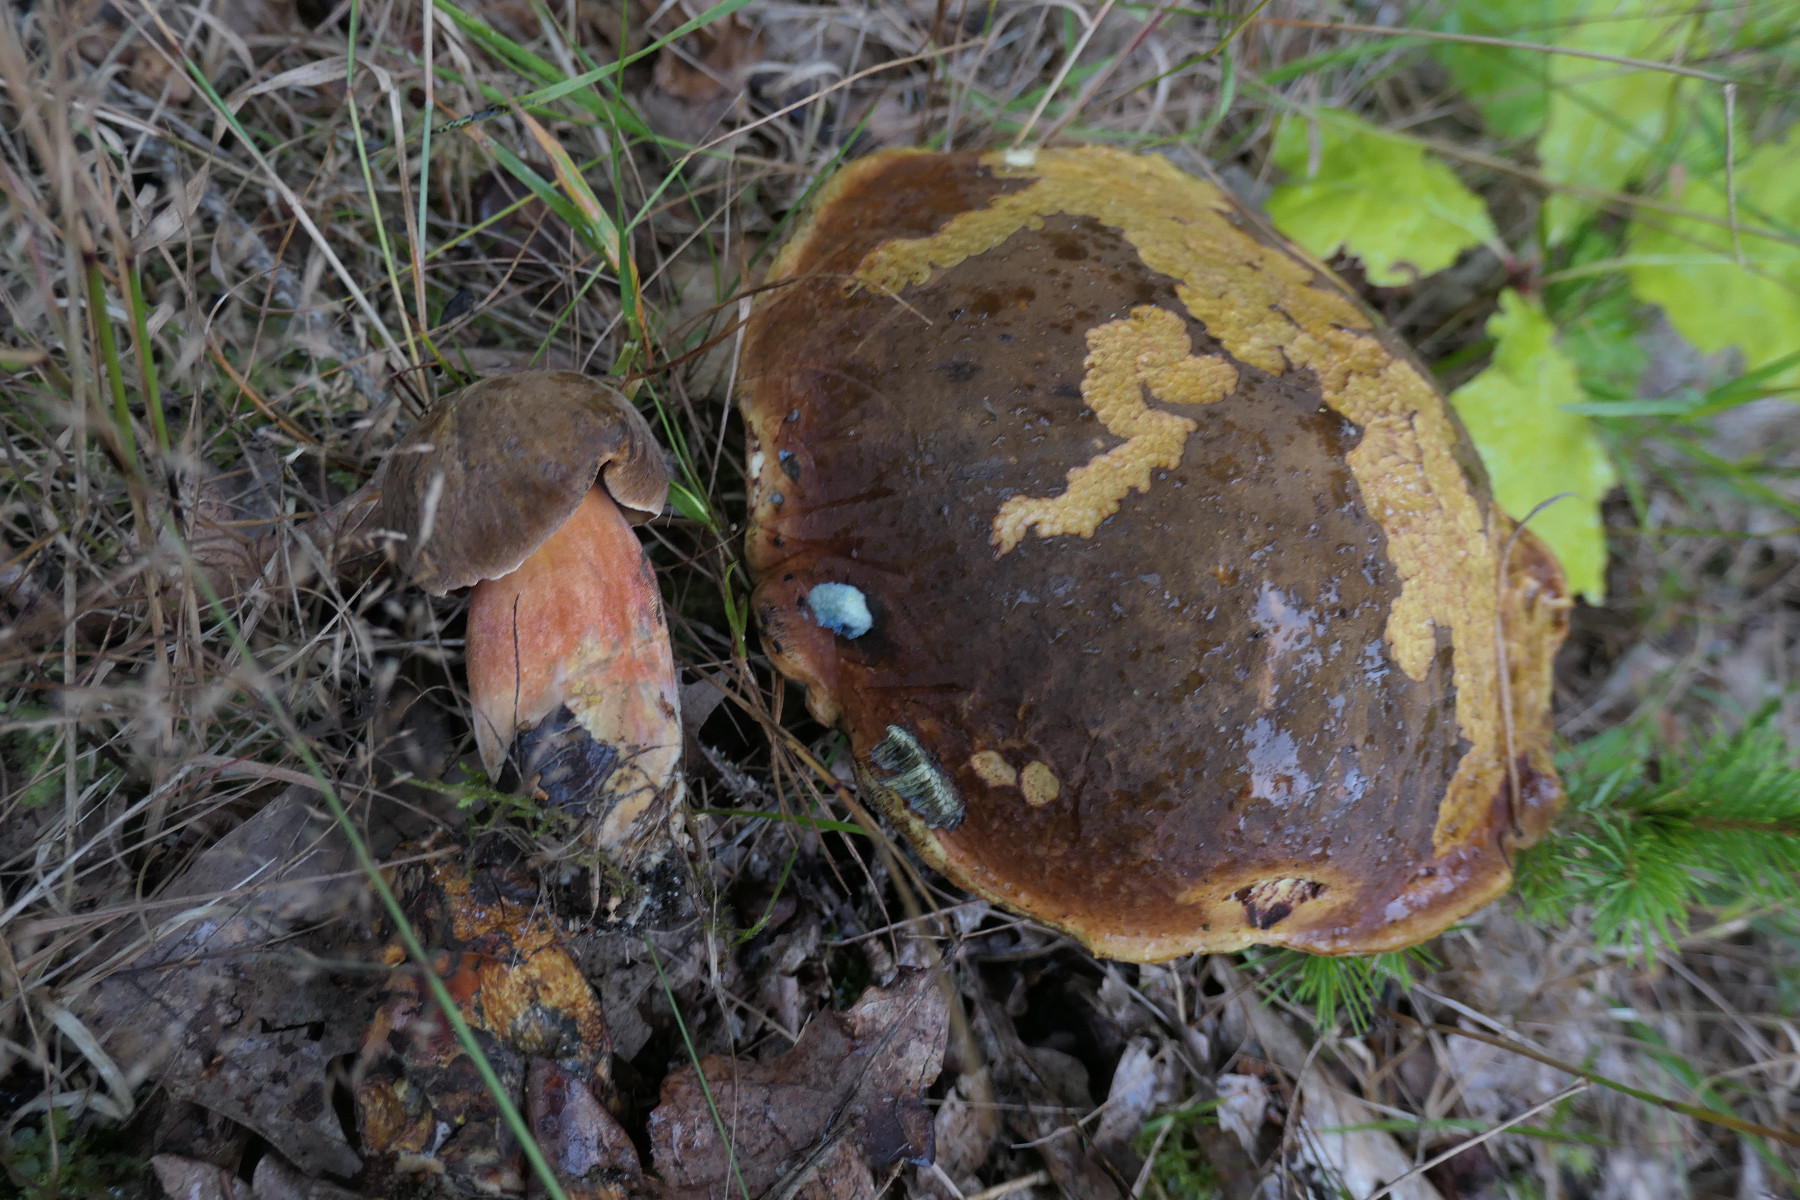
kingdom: Fungi
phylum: Basidiomycota
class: Agaricomycetes
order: Boletales
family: Boletaceae
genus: Neoboletus
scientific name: Neoboletus erythropus
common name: punktstokket indigorørhat
